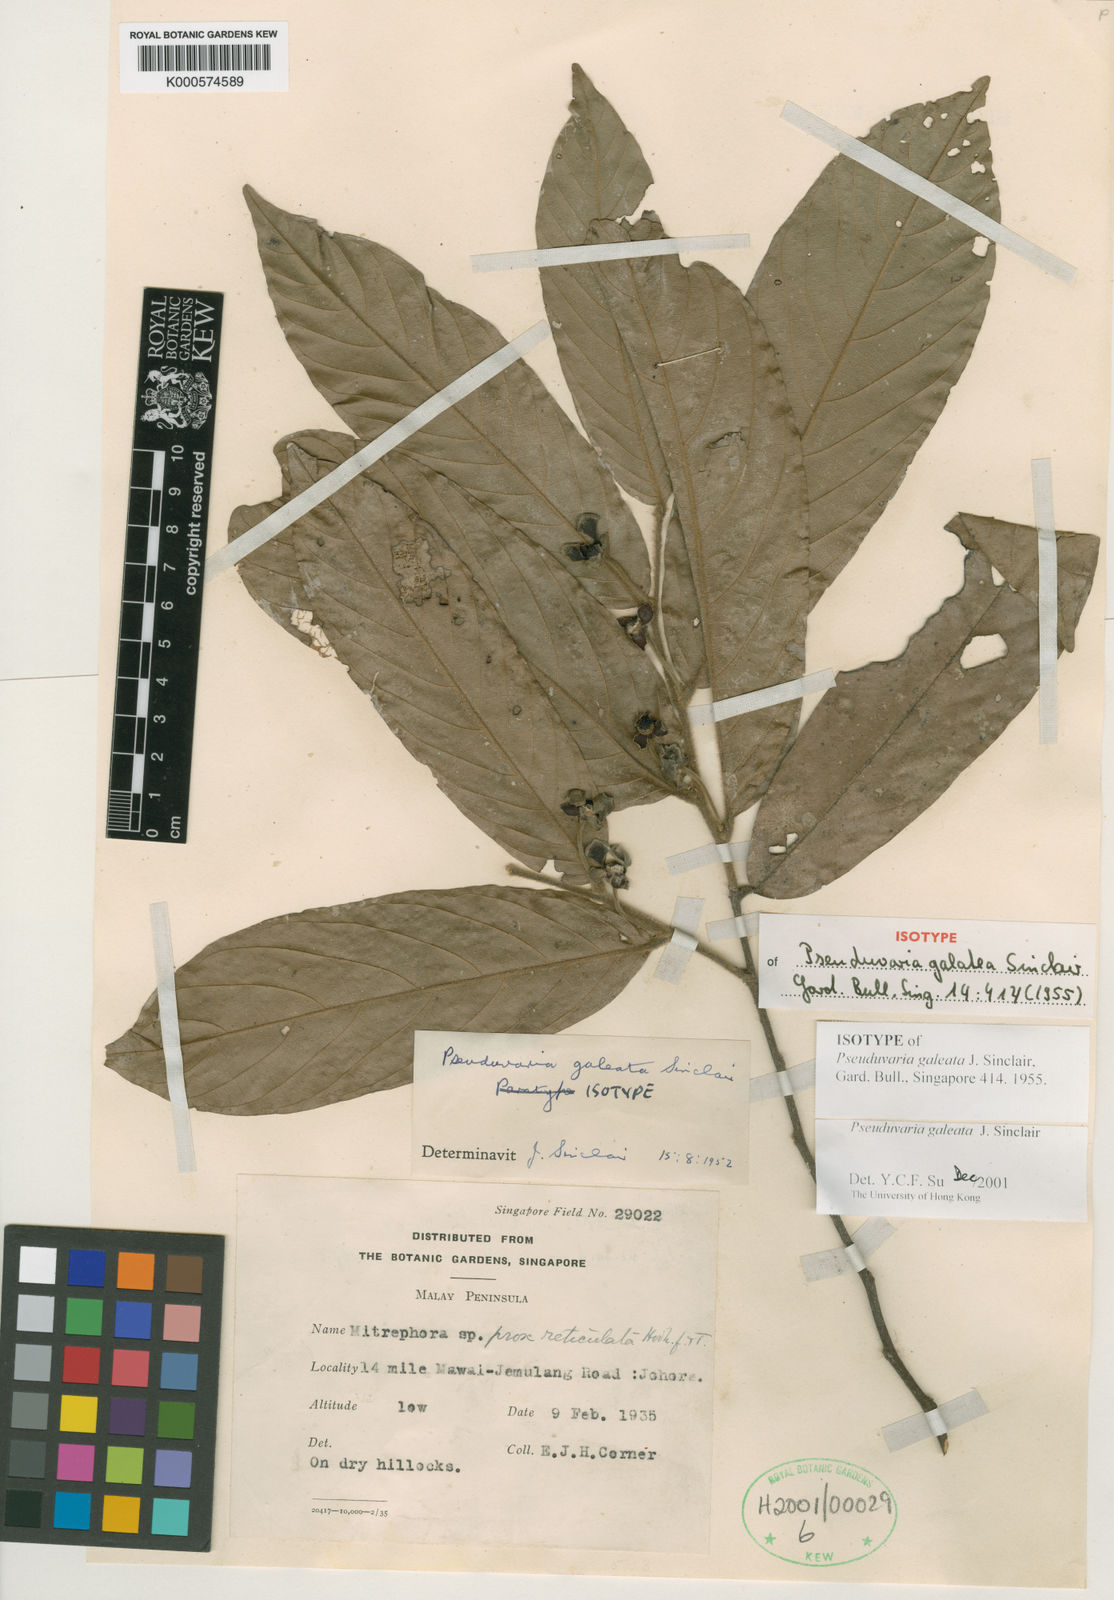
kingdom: Plantae
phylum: Tracheophyta
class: Magnoliopsida
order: Magnoliales
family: Annonaceae
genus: Pseuduvaria
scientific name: Pseuduvaria galeata
